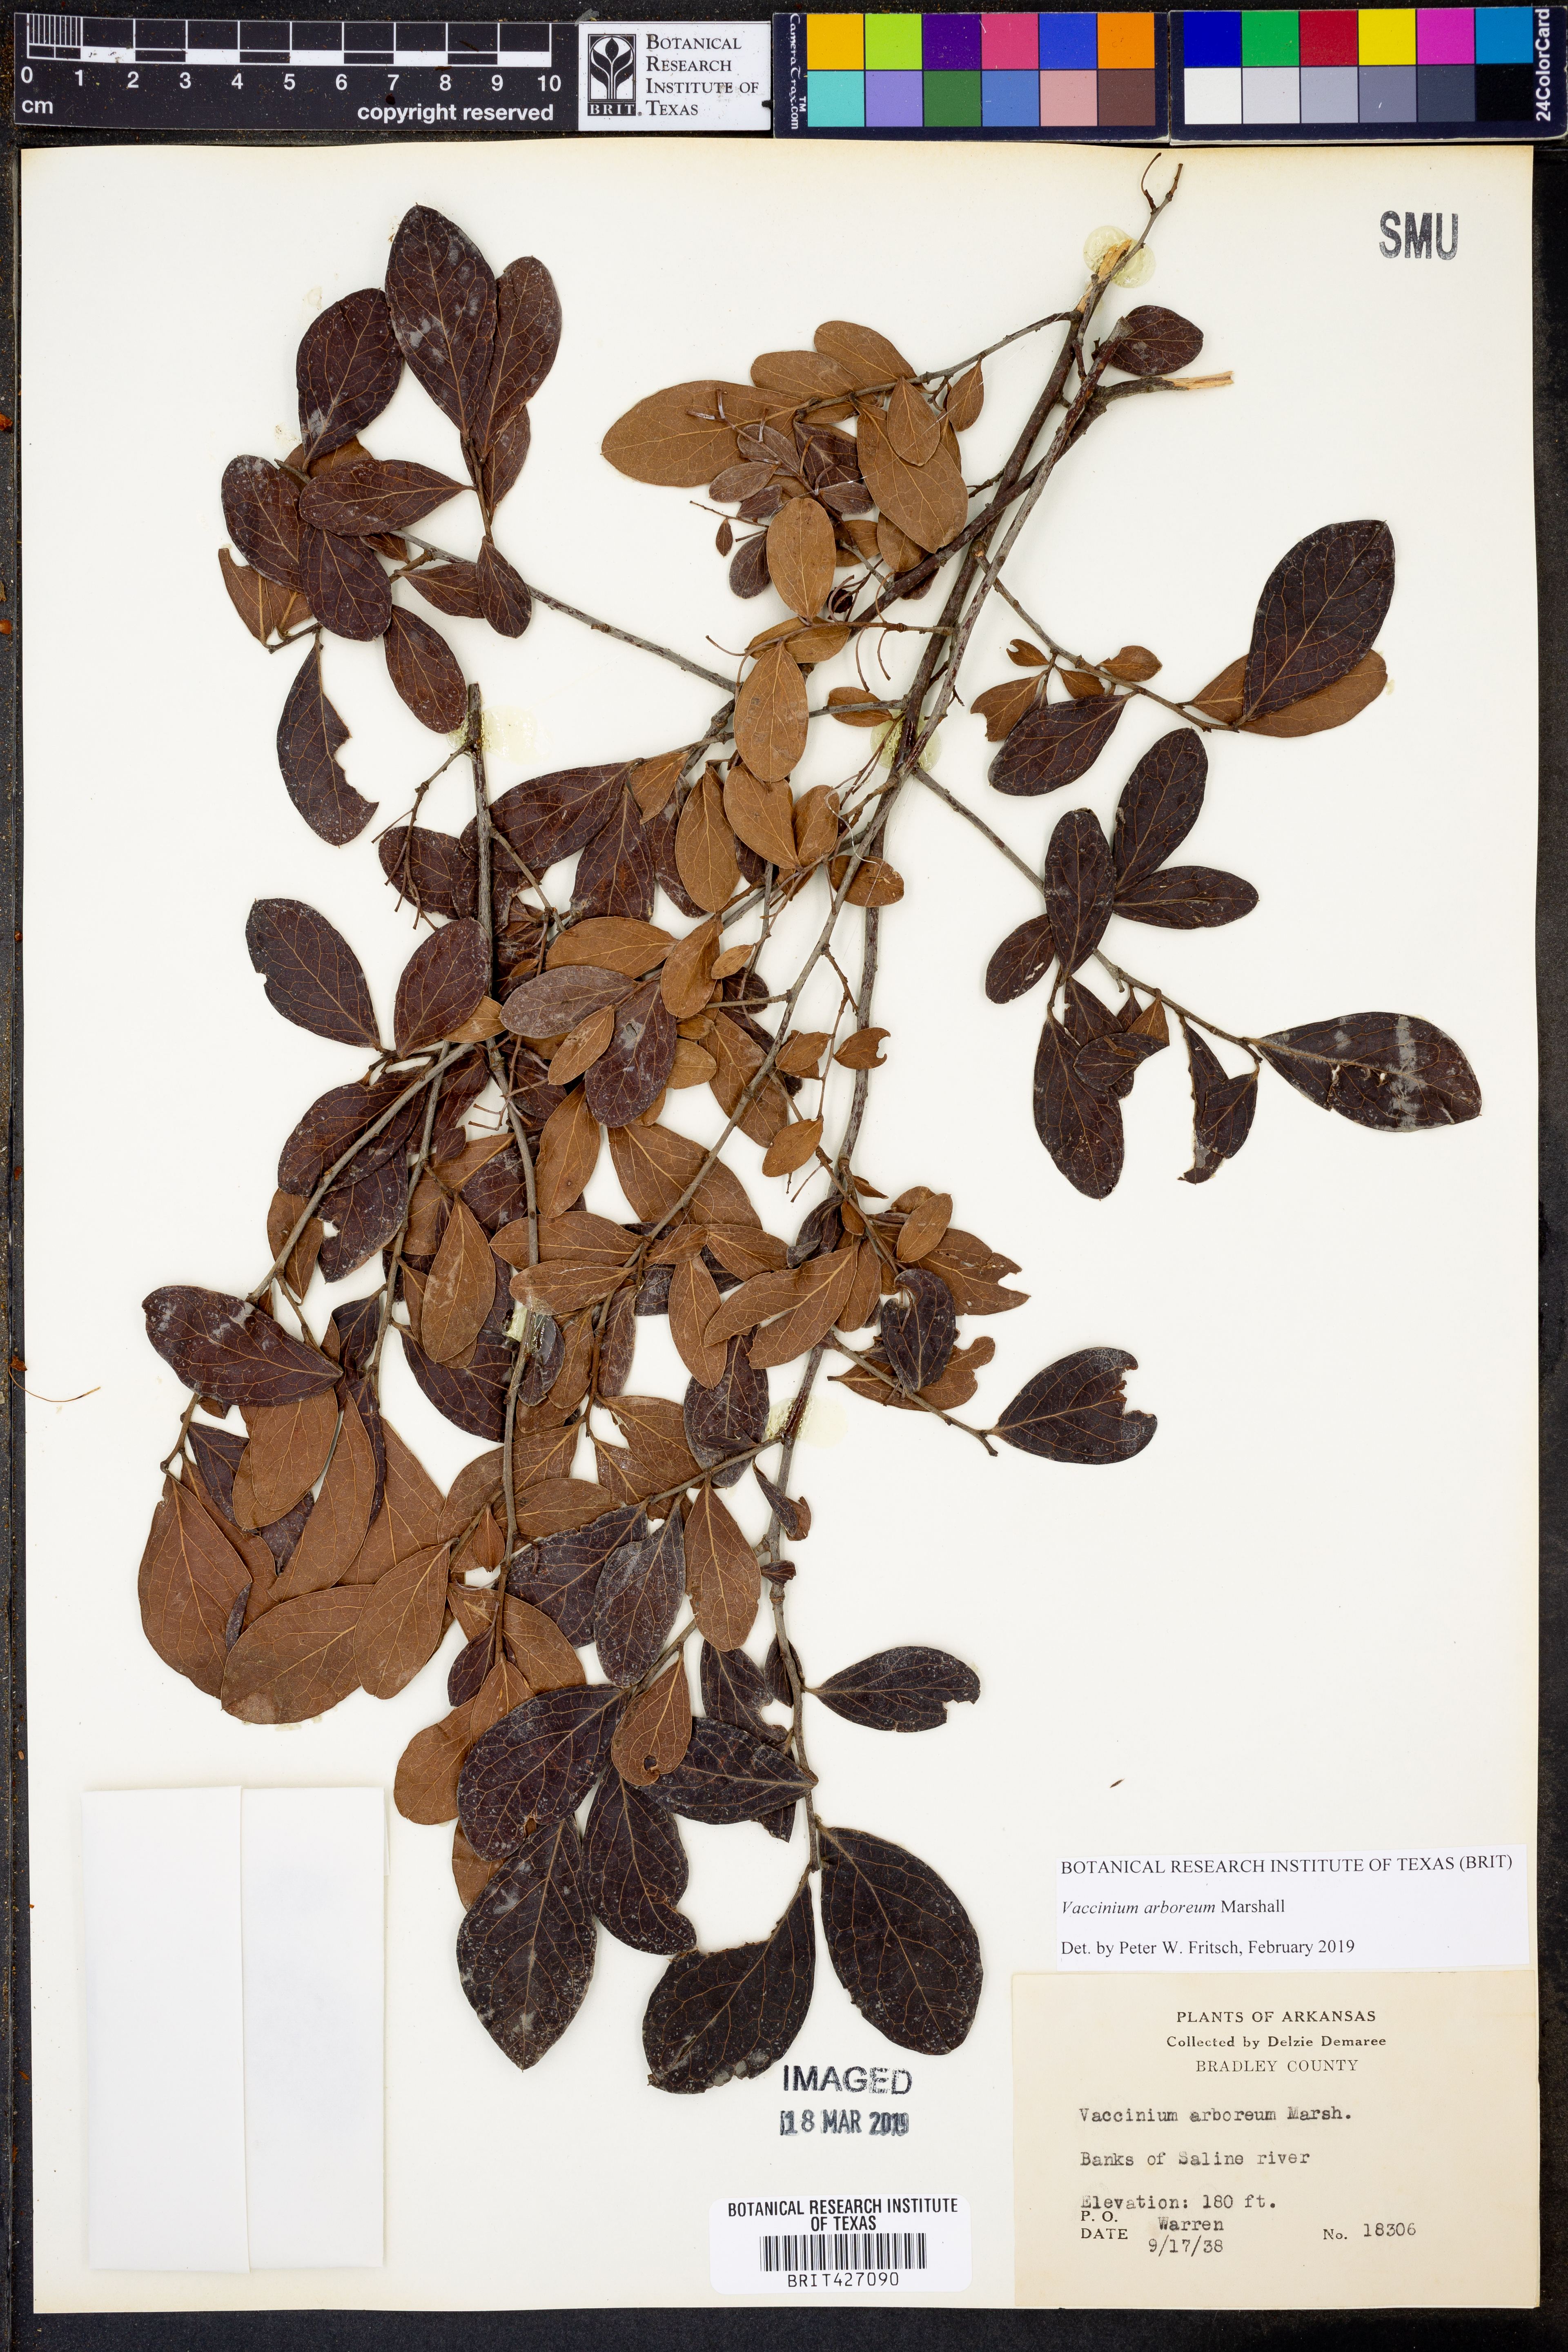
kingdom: Plantae
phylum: Tracheophyta
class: Magnoliopsida
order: Ericales
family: Ericaceae
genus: Vaccinium
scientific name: Vaccinium arboreum
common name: Farkleberry
